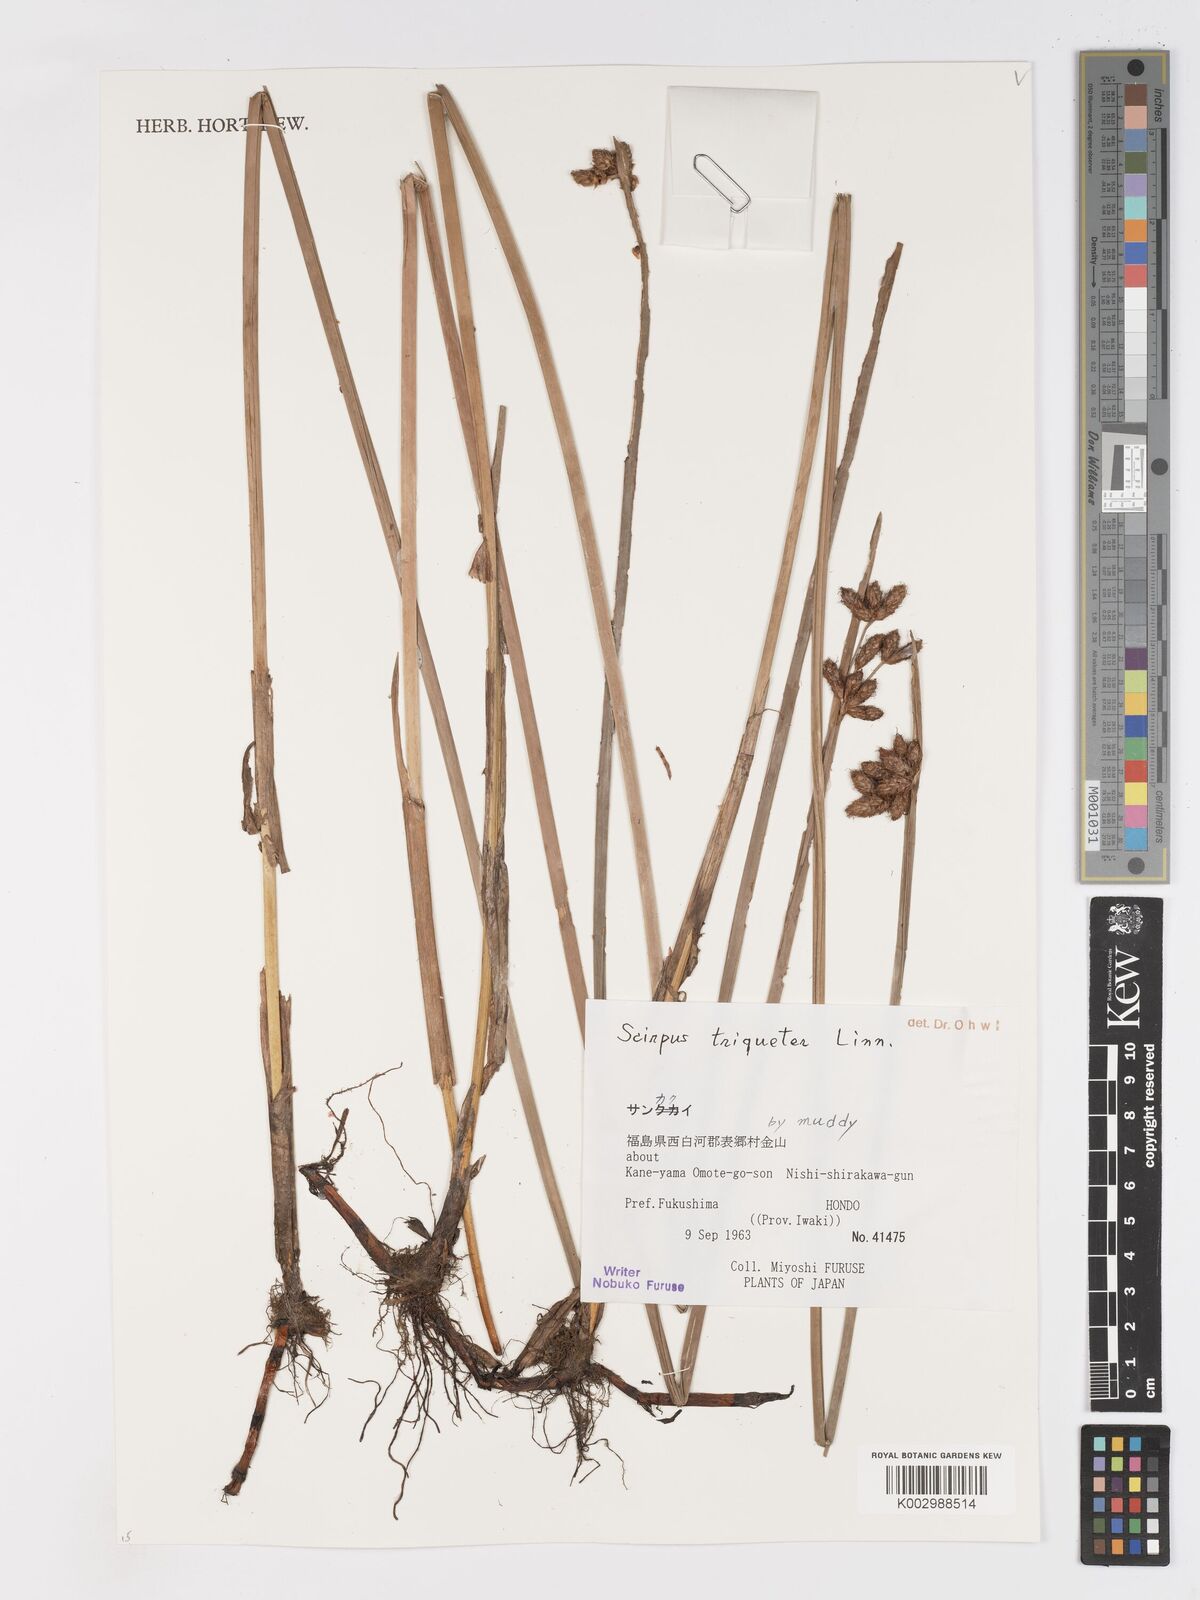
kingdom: Plantae
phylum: Tracheophyta
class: Liliopsida
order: Poales
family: Cyperaceae
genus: Schoenoplectus
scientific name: Schoenoplectus triqueter
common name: Triangular club-rush
